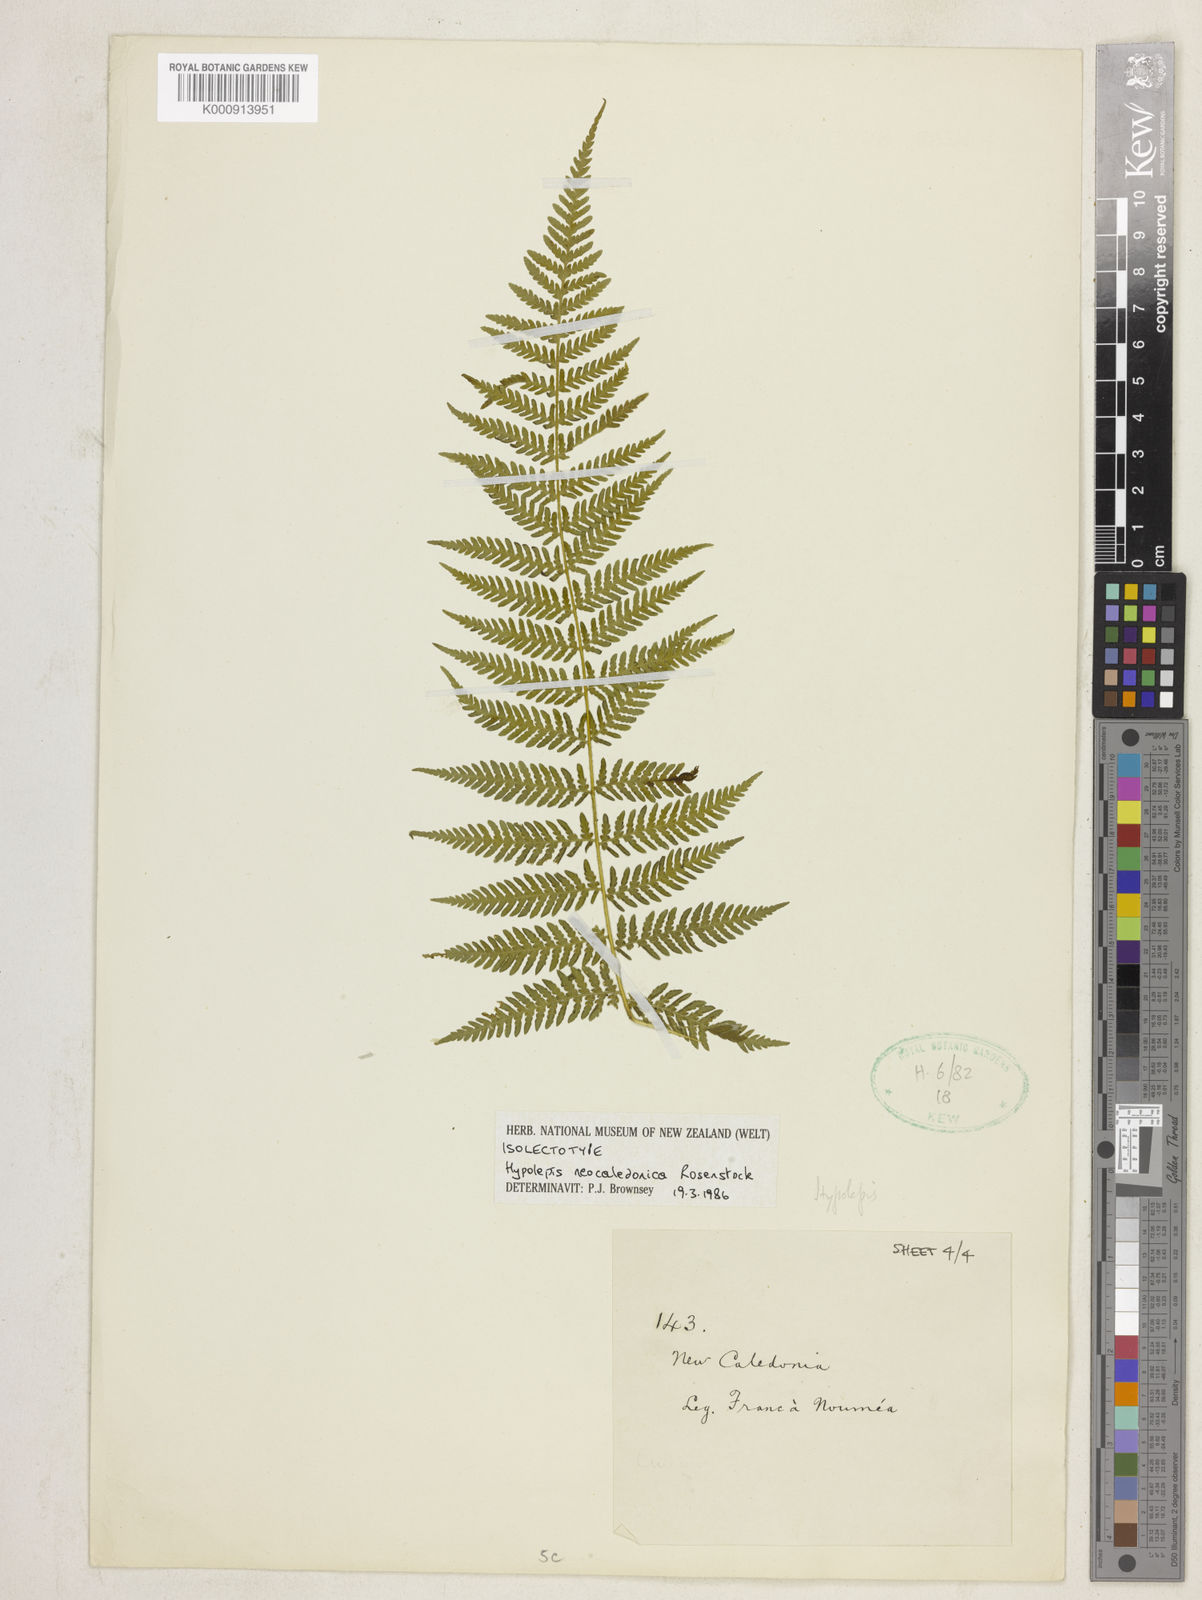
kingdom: Plantae
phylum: Tracheophyta
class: Polypodiopsida
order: Polypodiales
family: Dennstaedtiaceae
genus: Hypolepis
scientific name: Hypolepis tenuifolia
